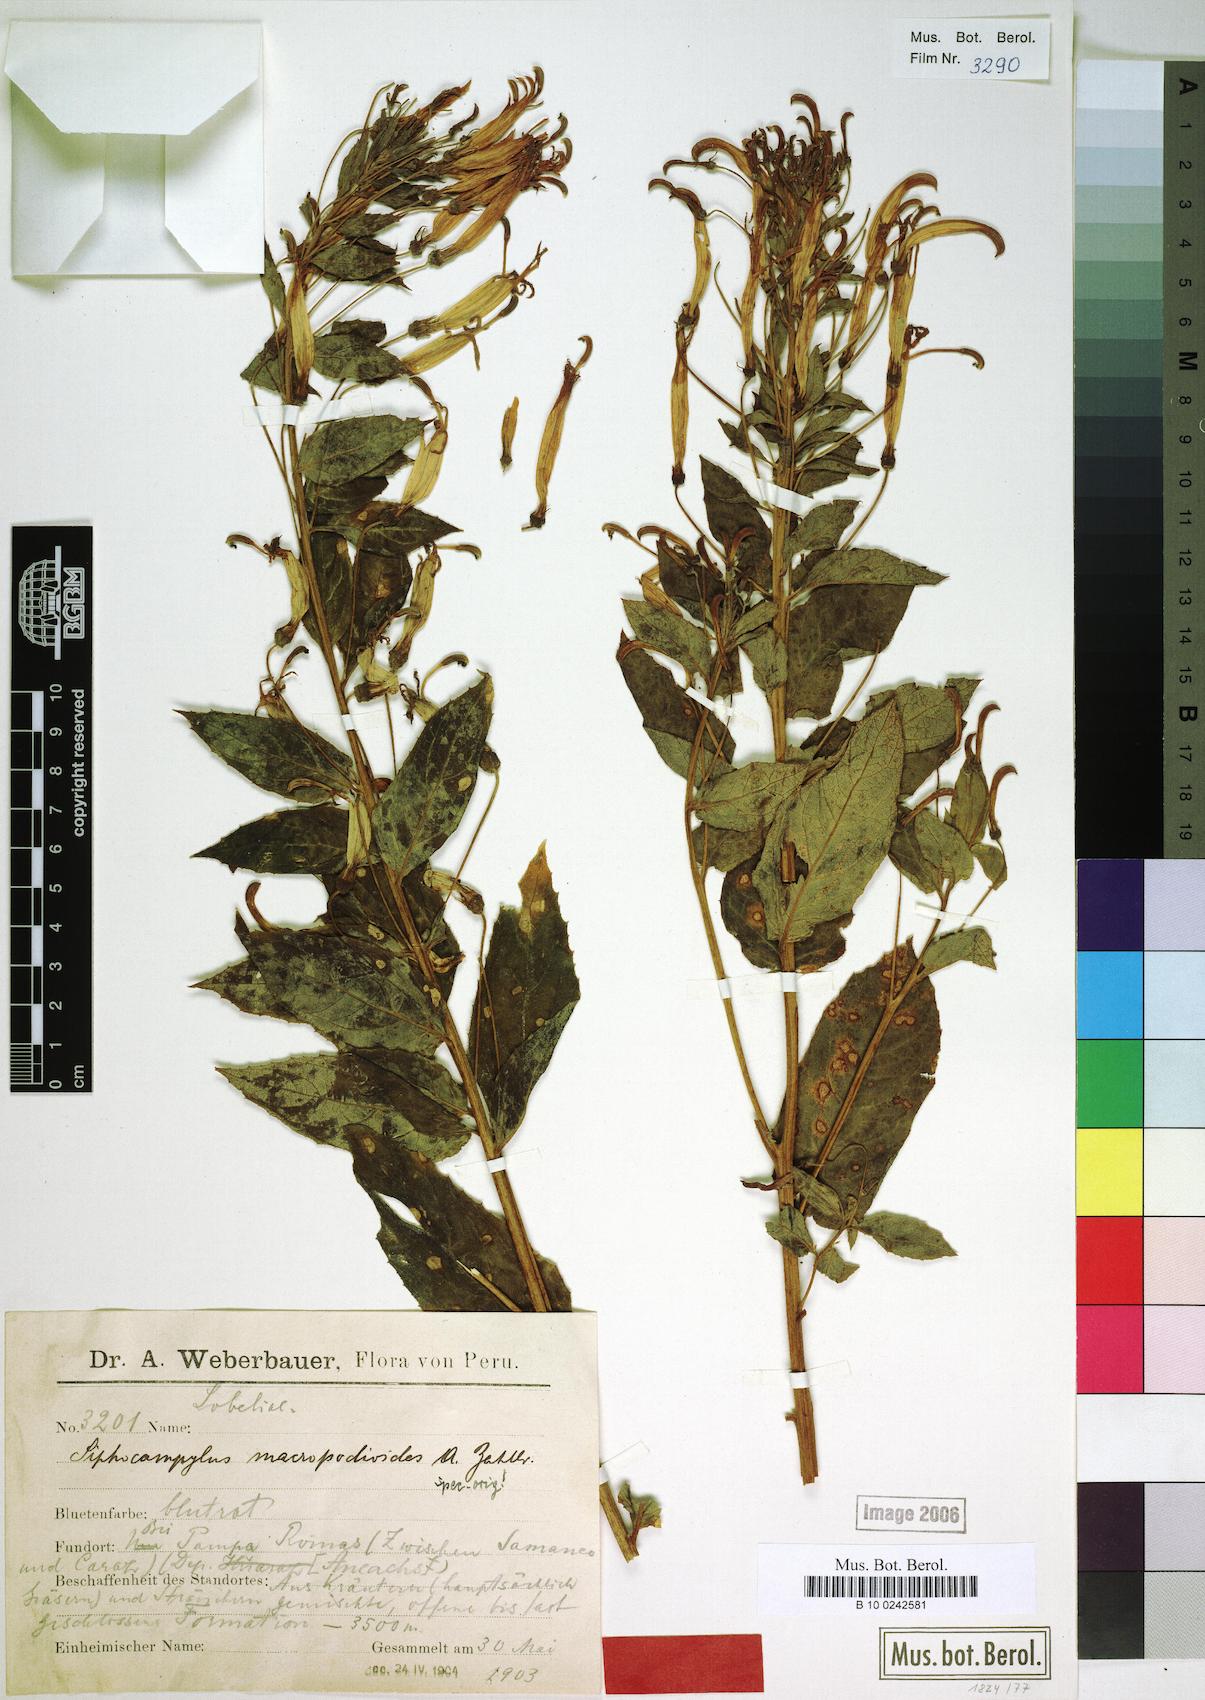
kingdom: Plantae
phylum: Tracheophyta
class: Magnoliopsida
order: Asterales
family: Campanulaceae
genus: Siphocampylus
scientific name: Siphocampylus macropodoides
